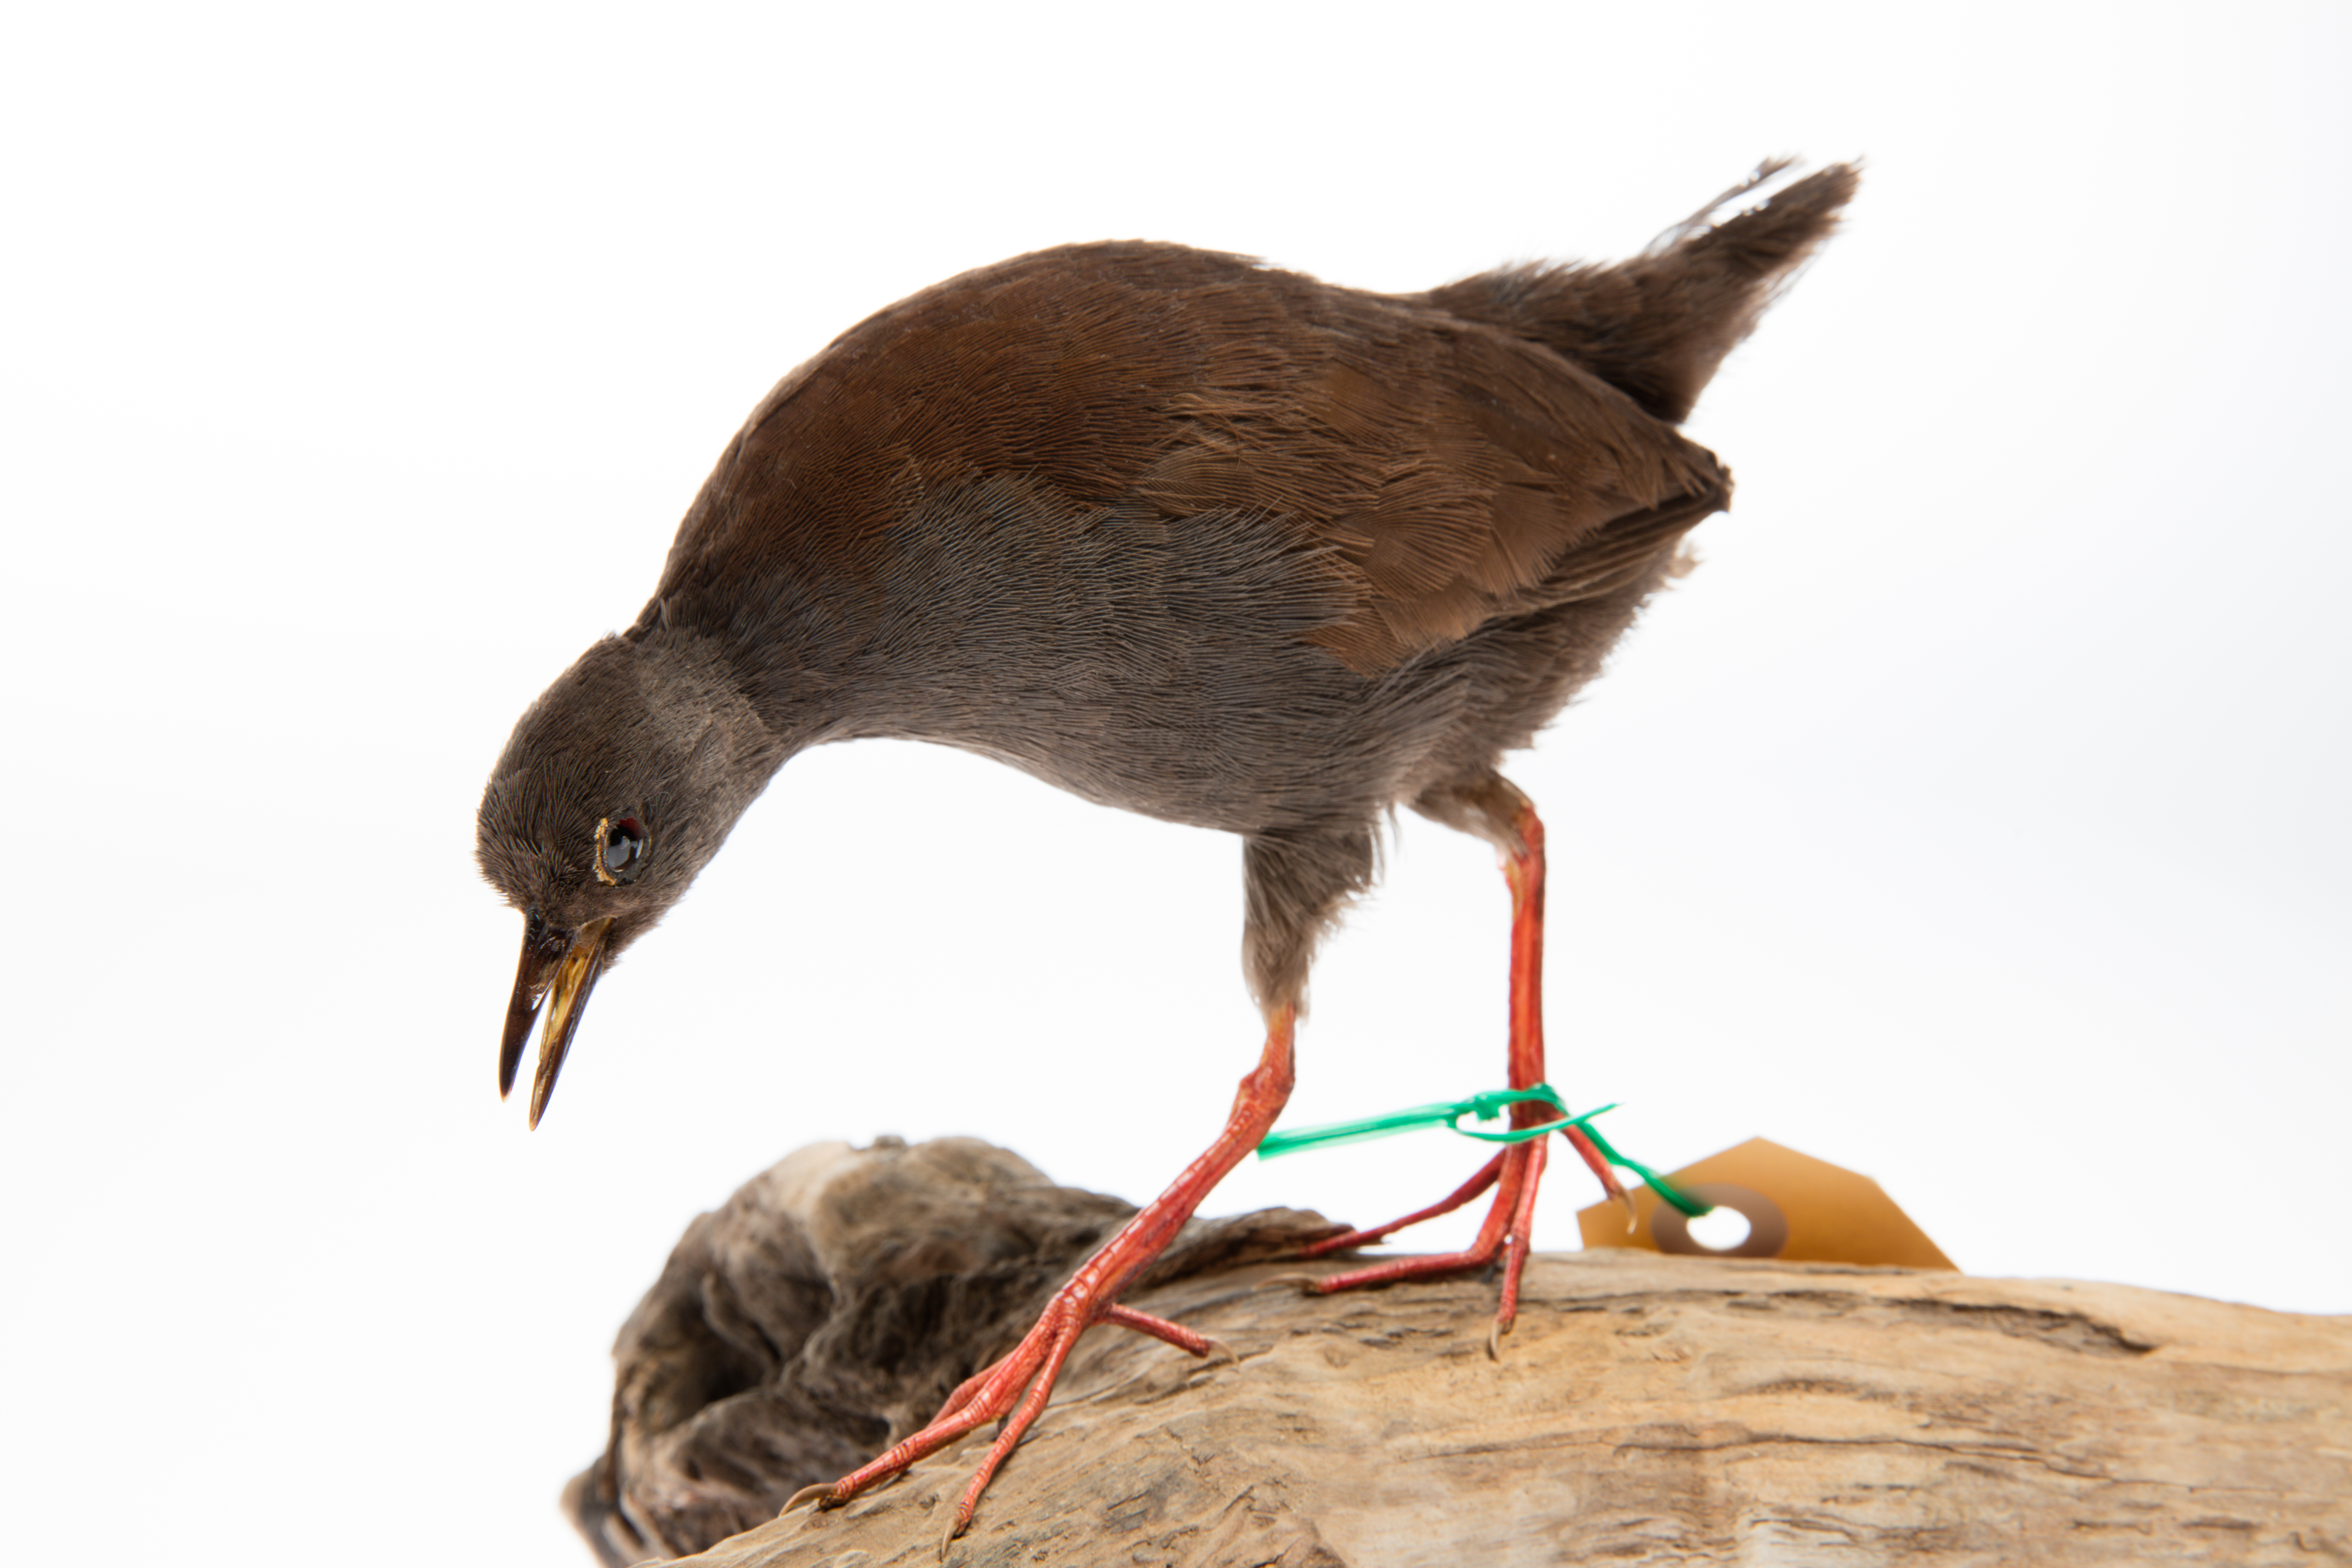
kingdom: Animalia
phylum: Chordata
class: Aves
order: Gruiformes
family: Rallidae
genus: Porzana
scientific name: Porzana tabuensis
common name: Spotless crake
